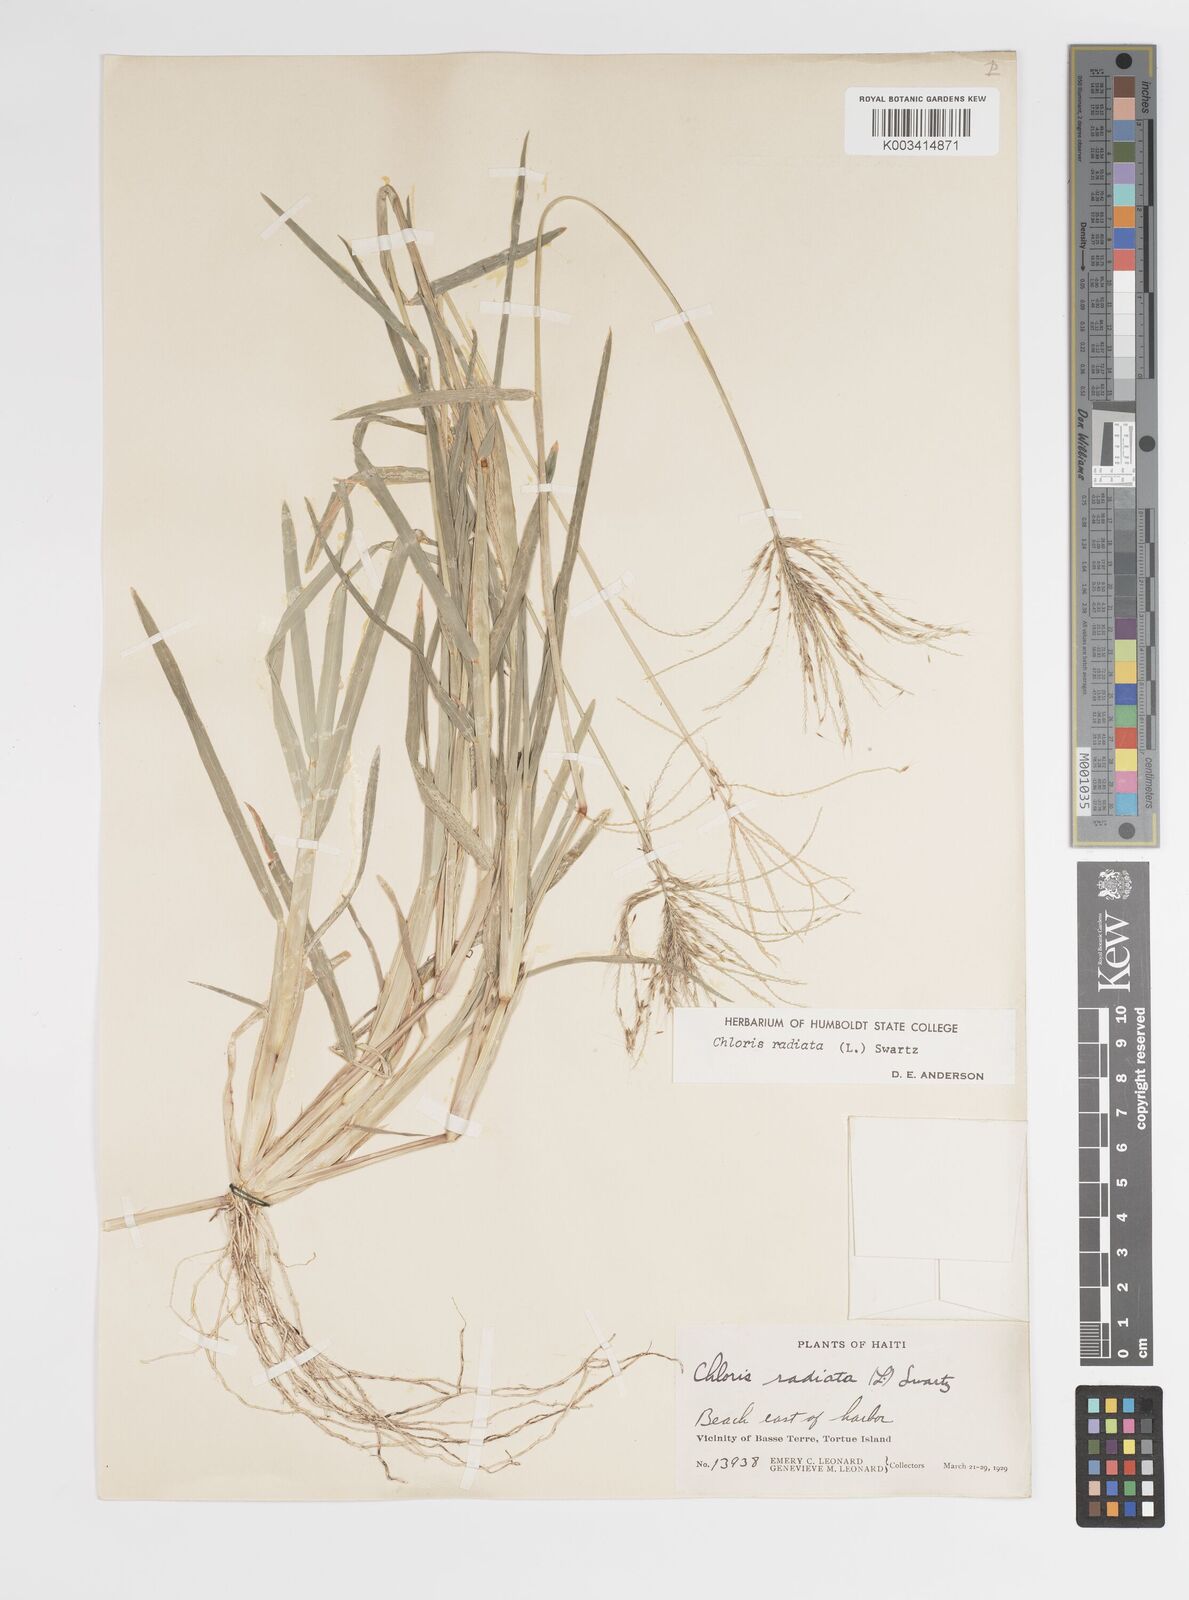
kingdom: Plantae
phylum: Tracheophyta
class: Liliopsida
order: Poales
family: Poaceae
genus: Chloris
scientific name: Chloris radiata
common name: Radiate fingergrass
